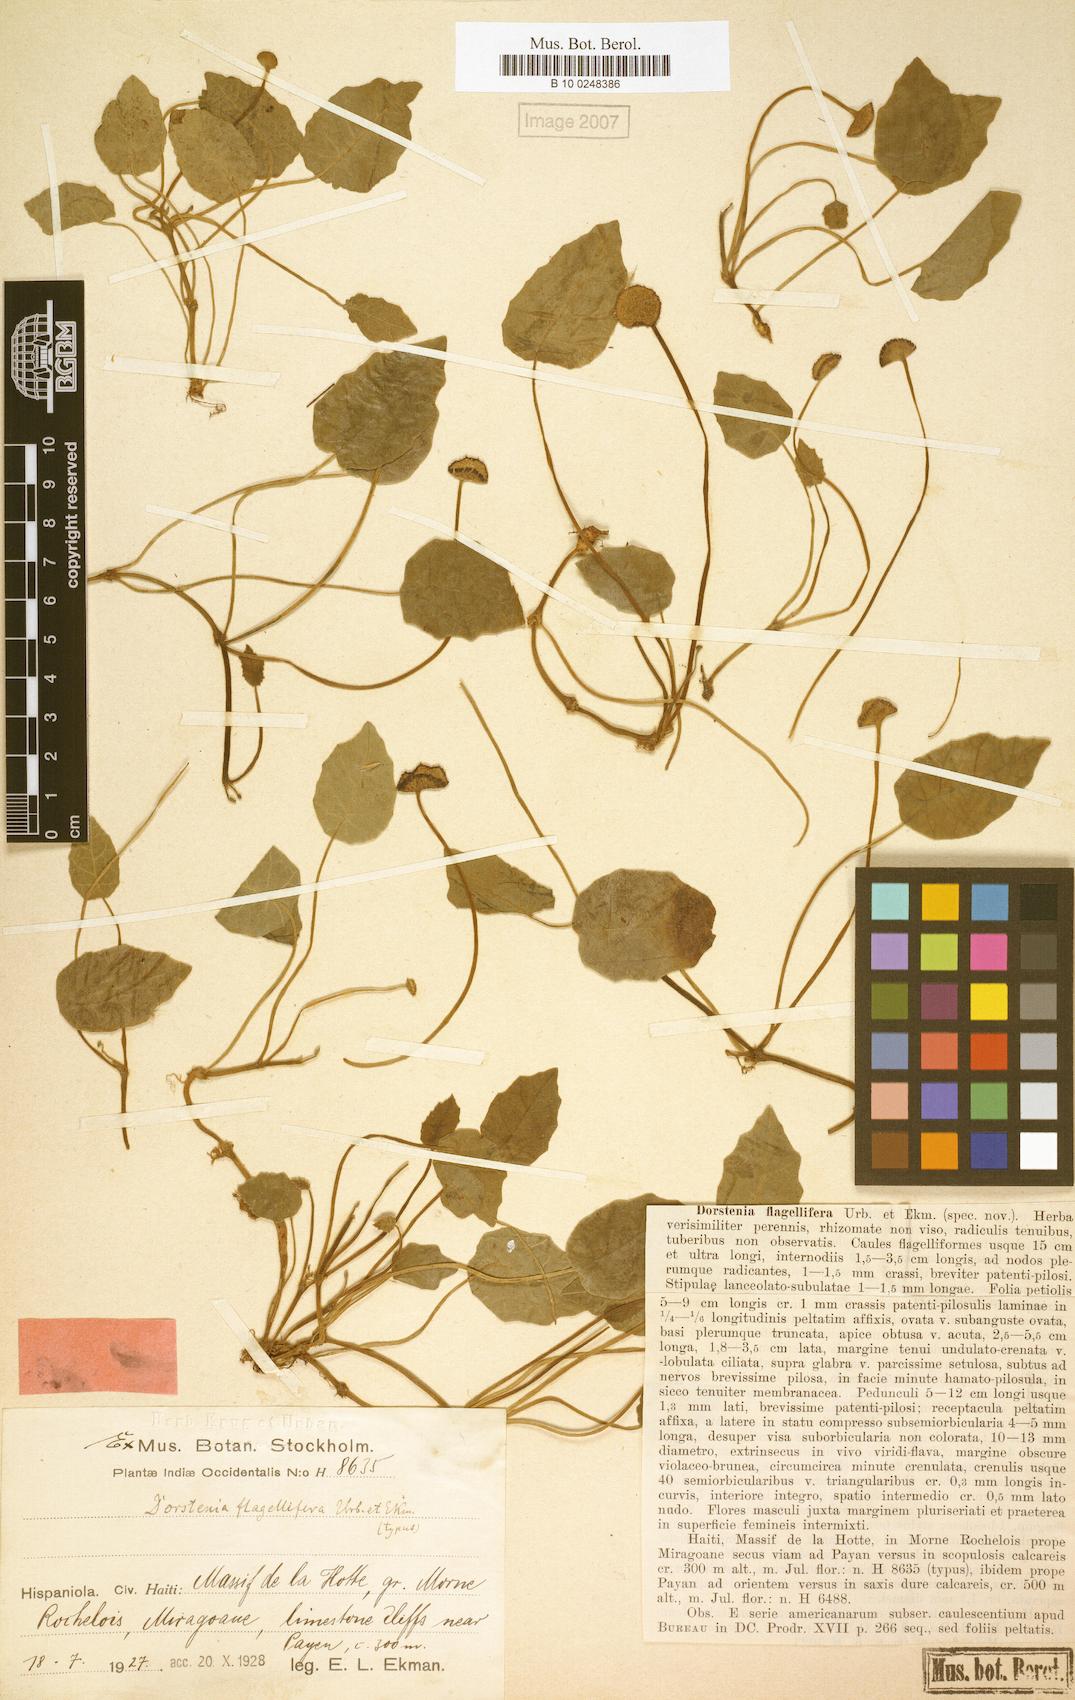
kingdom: Plantae
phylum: Tracheophyta
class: Magnoliopsida
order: Rosales
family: Moraceae
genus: Dorstenia
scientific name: Dorstenia flagellifera
